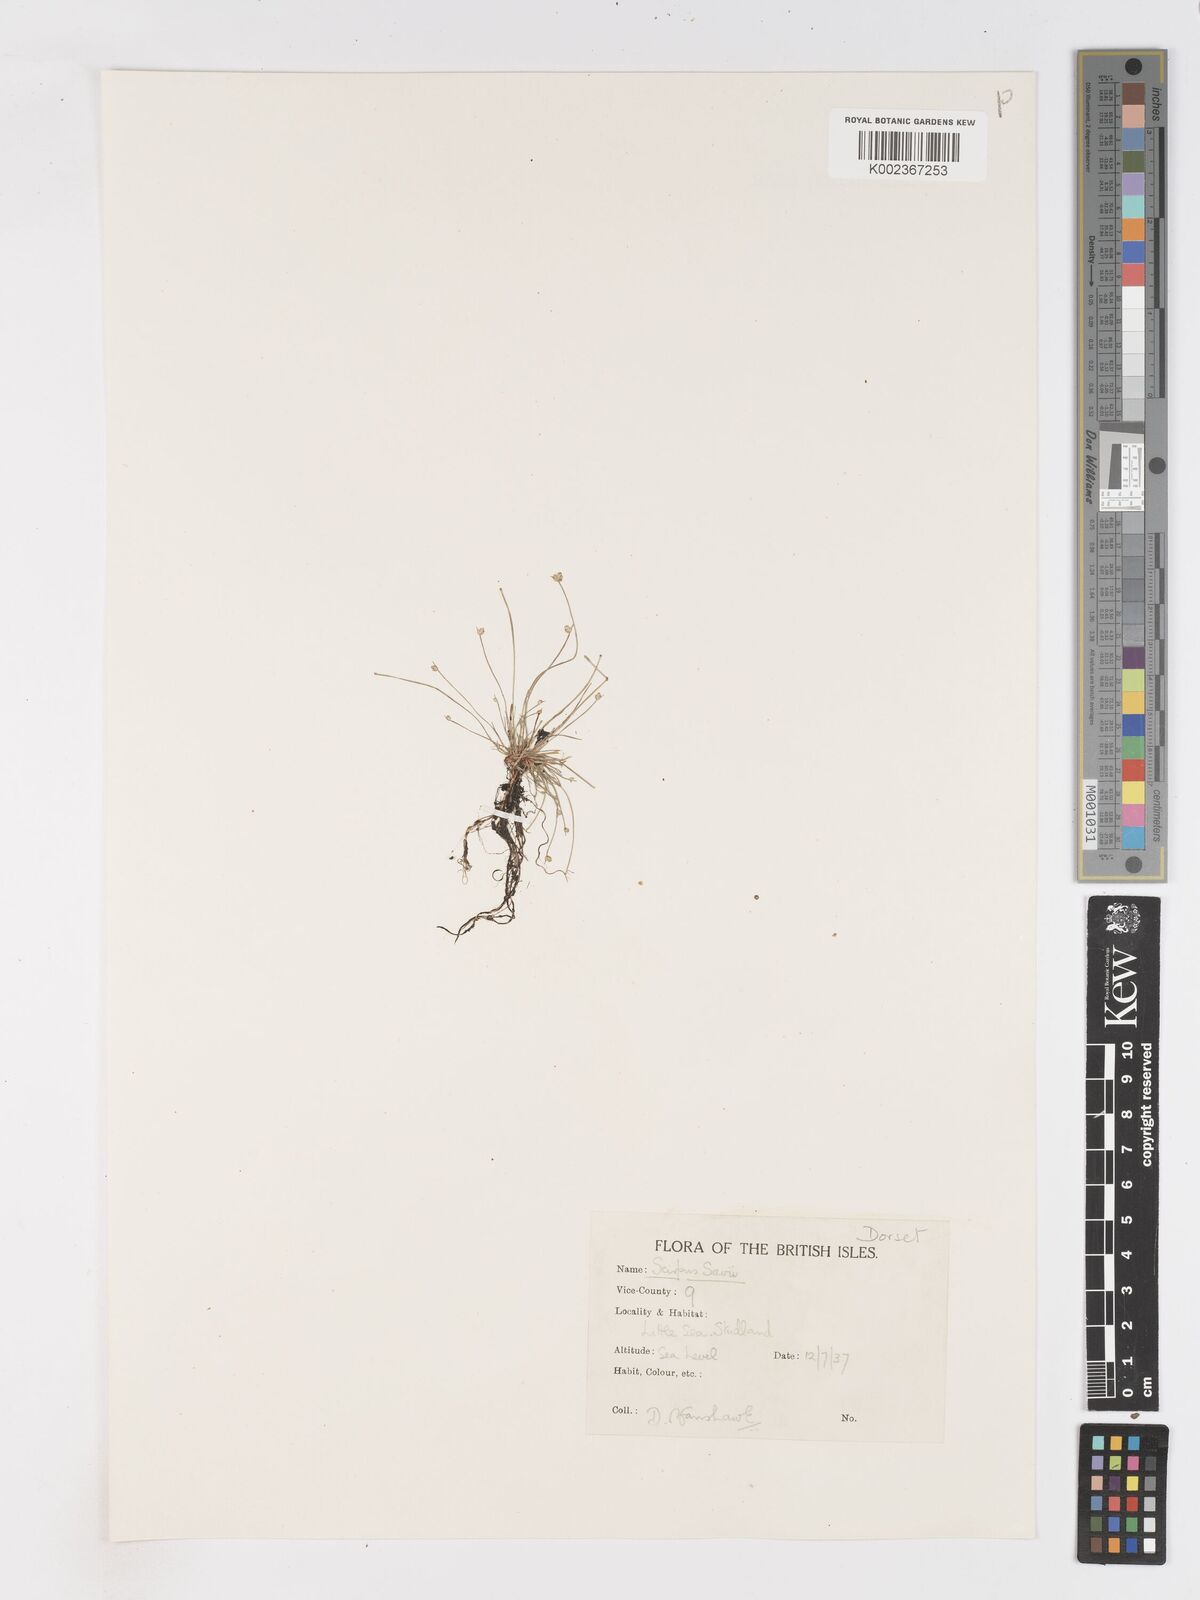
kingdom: Plantae
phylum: Tracheophyta
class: Liliopsida
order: Poales
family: Cyperaceae
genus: Isolepis
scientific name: Isolepis cernua
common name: Slender club-rush
